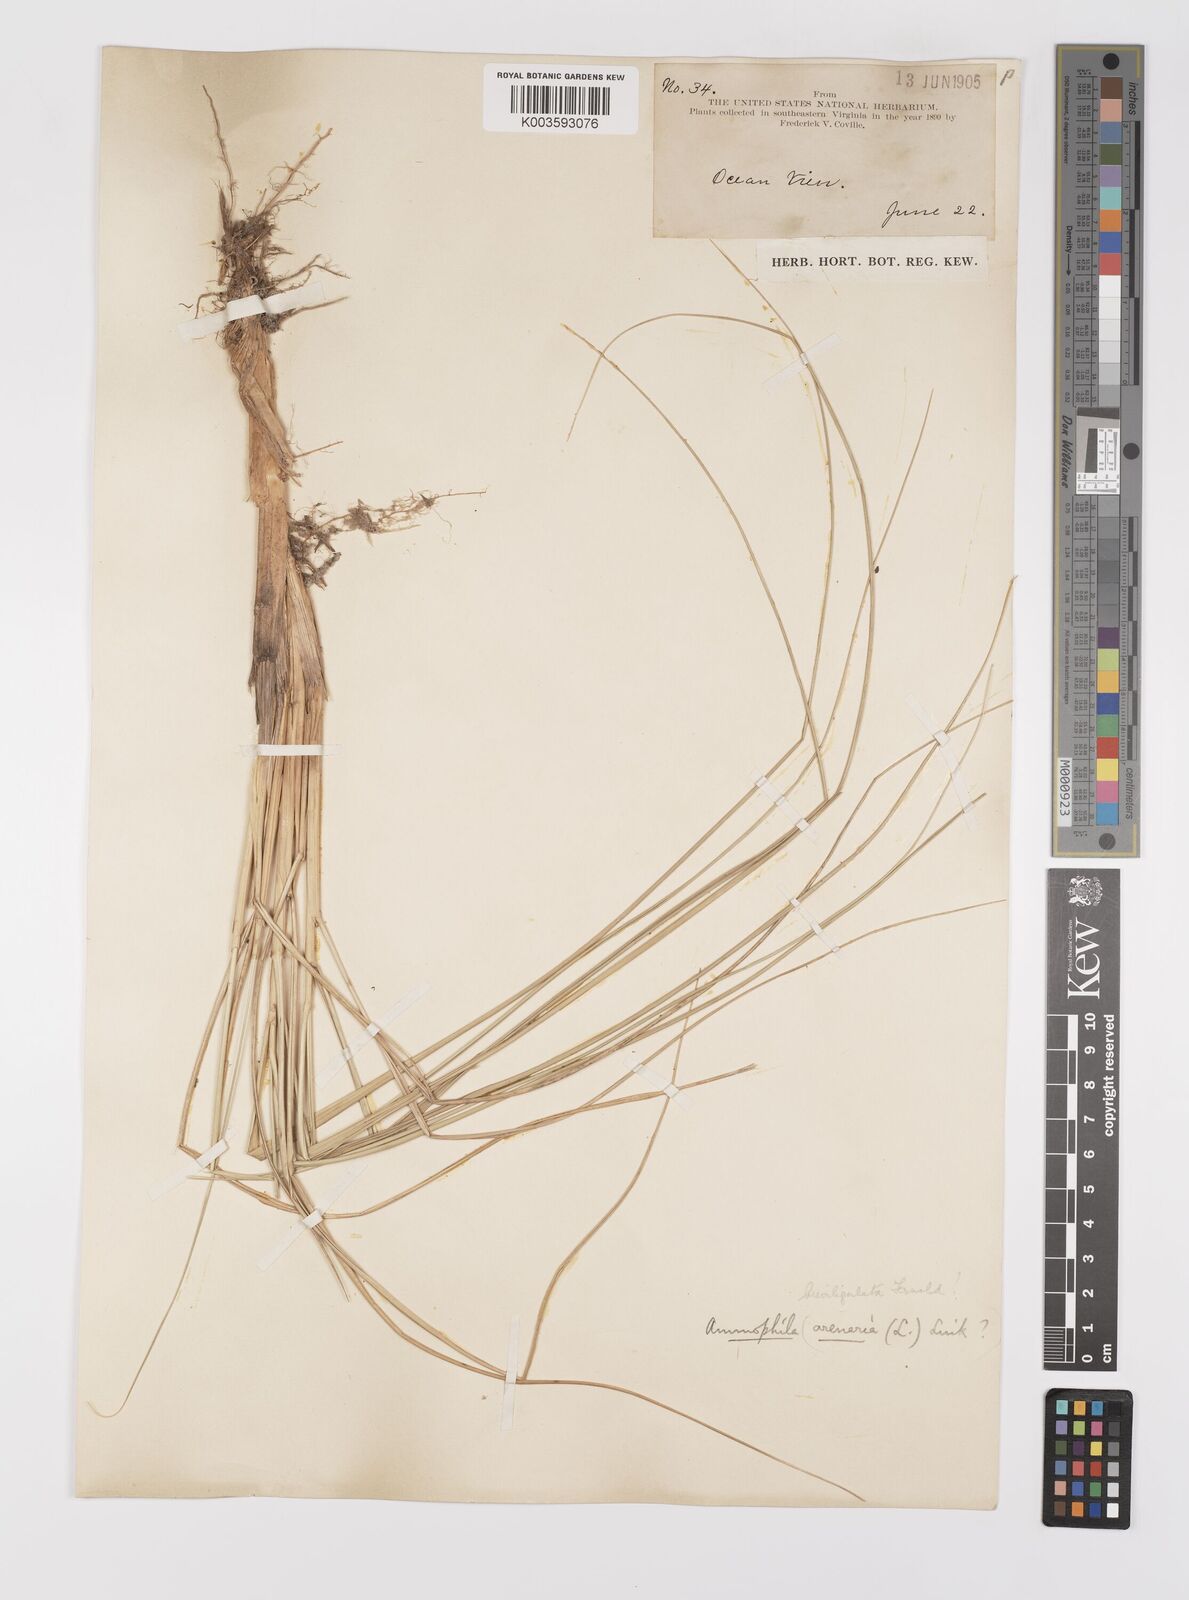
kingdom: Plantae
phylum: Tracheophyta
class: Liliopsida
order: Poales
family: Poaceae
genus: Calamagrostis
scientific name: Calamagrostis breviligulata
